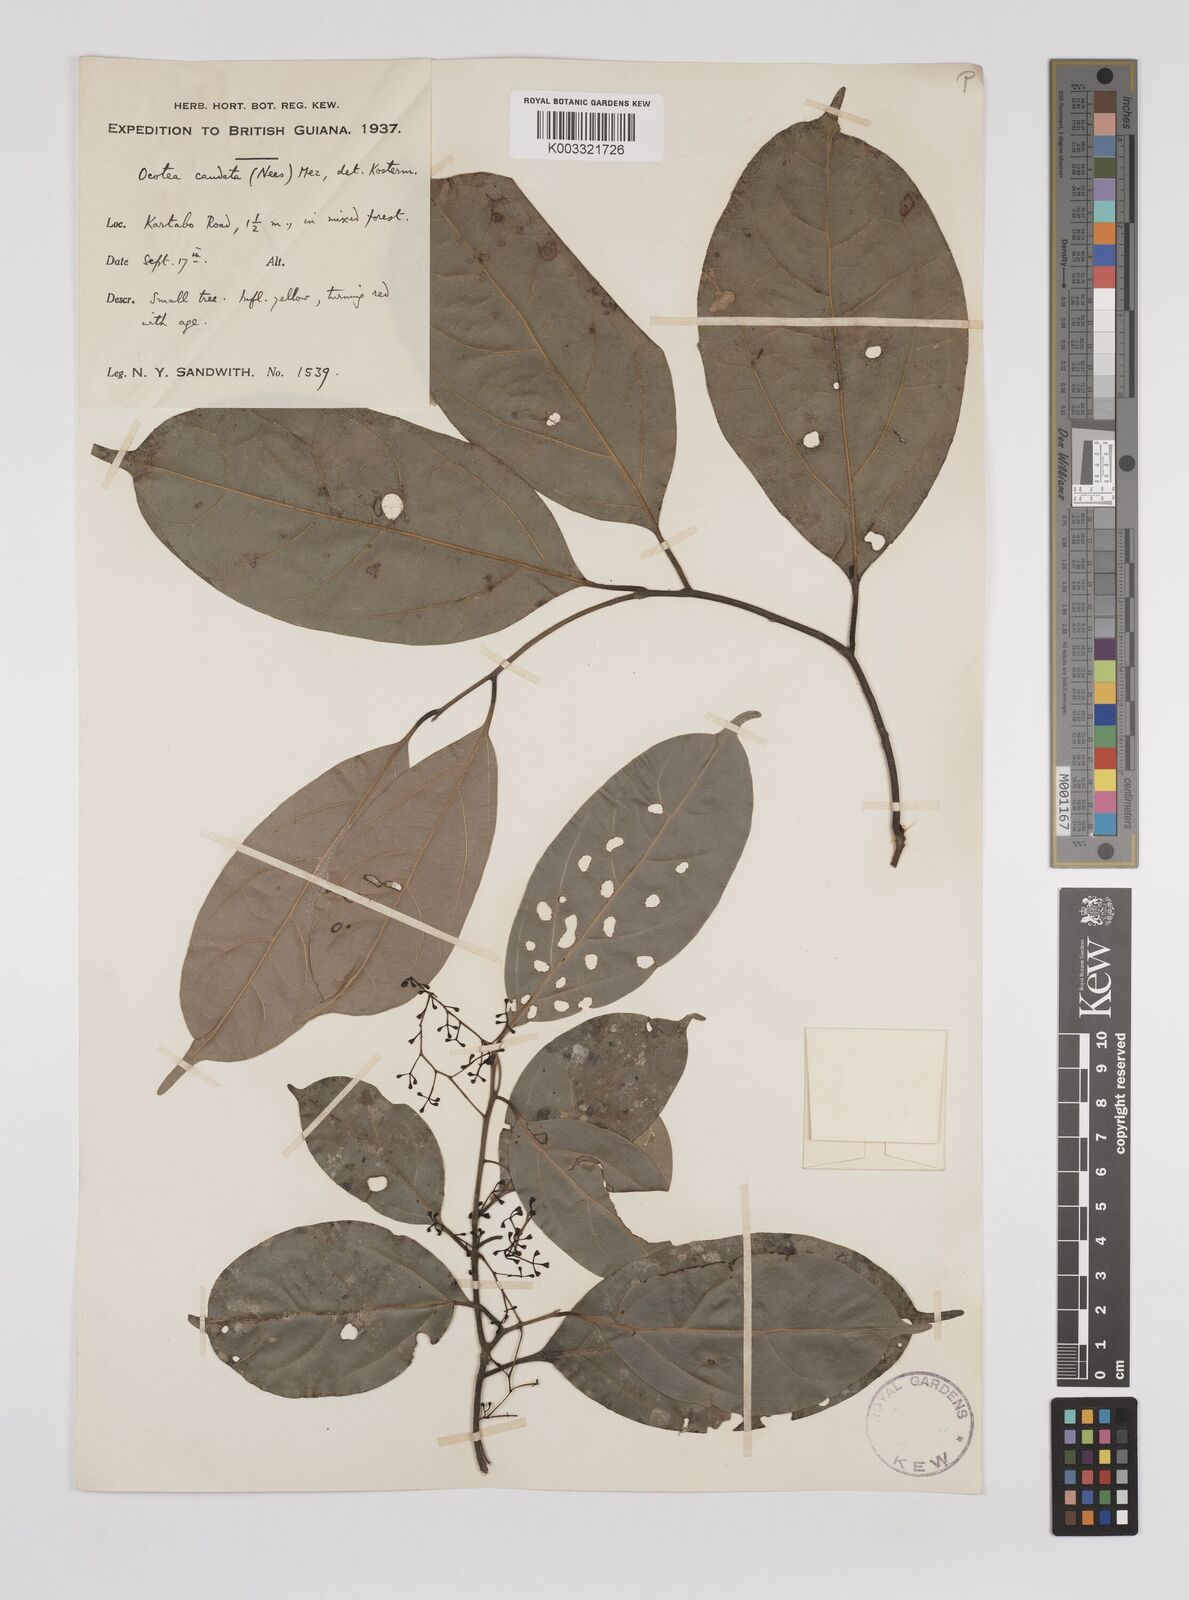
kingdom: Plantae
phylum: Tracheophyta
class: Magnoliopsida
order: Laurales
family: Lauraceae
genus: Ocotea
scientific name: Ocotea leptobotra
